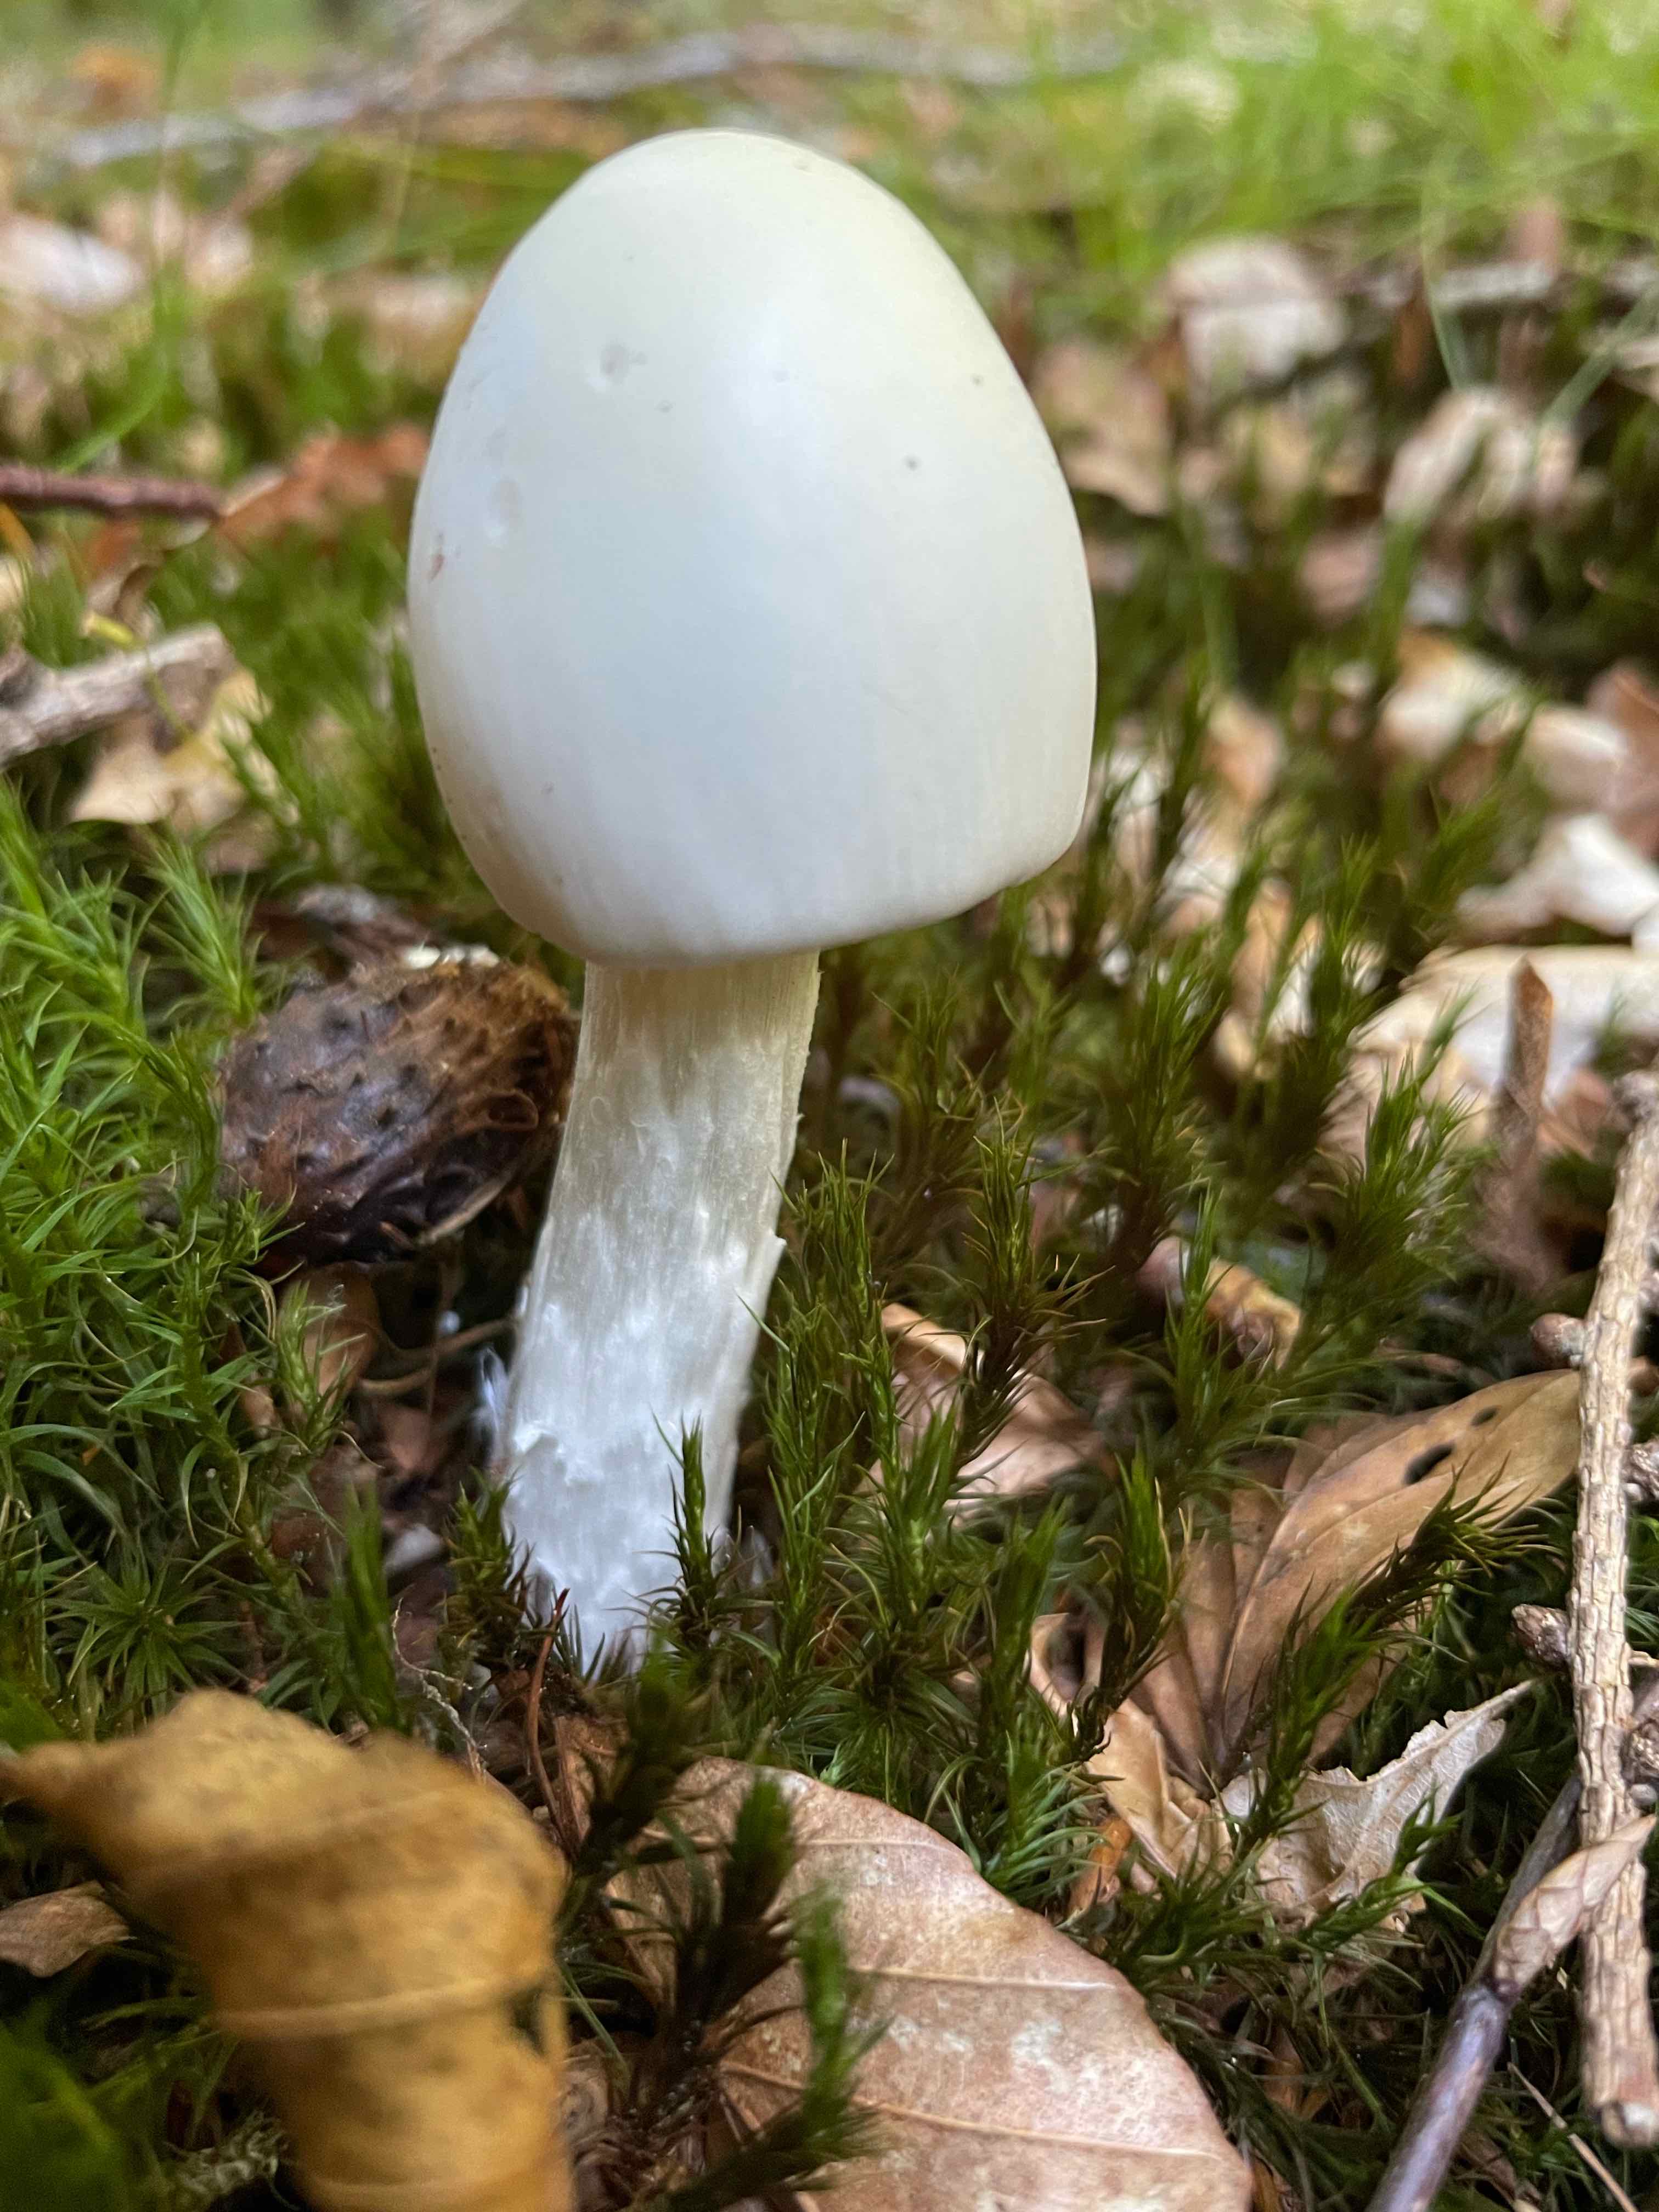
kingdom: Fungi
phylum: Basidiomycota
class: Agaricomycetes
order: Agaricales
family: Amanitaceae
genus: Amanita
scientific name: Amanita virosa
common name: snehvid fluesvamp
